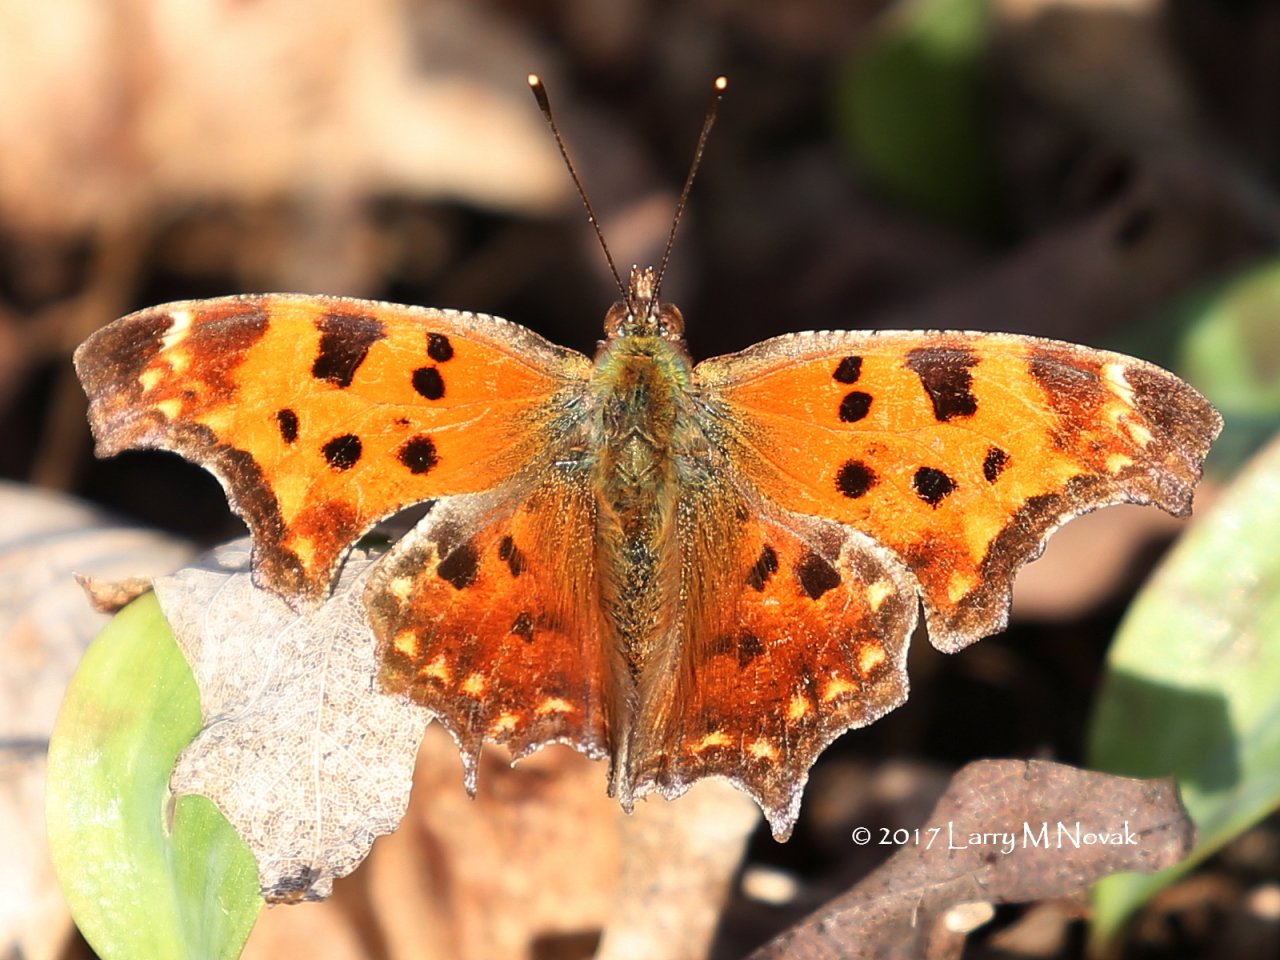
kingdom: Animalia
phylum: Arthropoda
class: Insecta
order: Lepidoptera
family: Nymphalidae
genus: Polygonia
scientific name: Polygonia comma
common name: Eastern Comma
